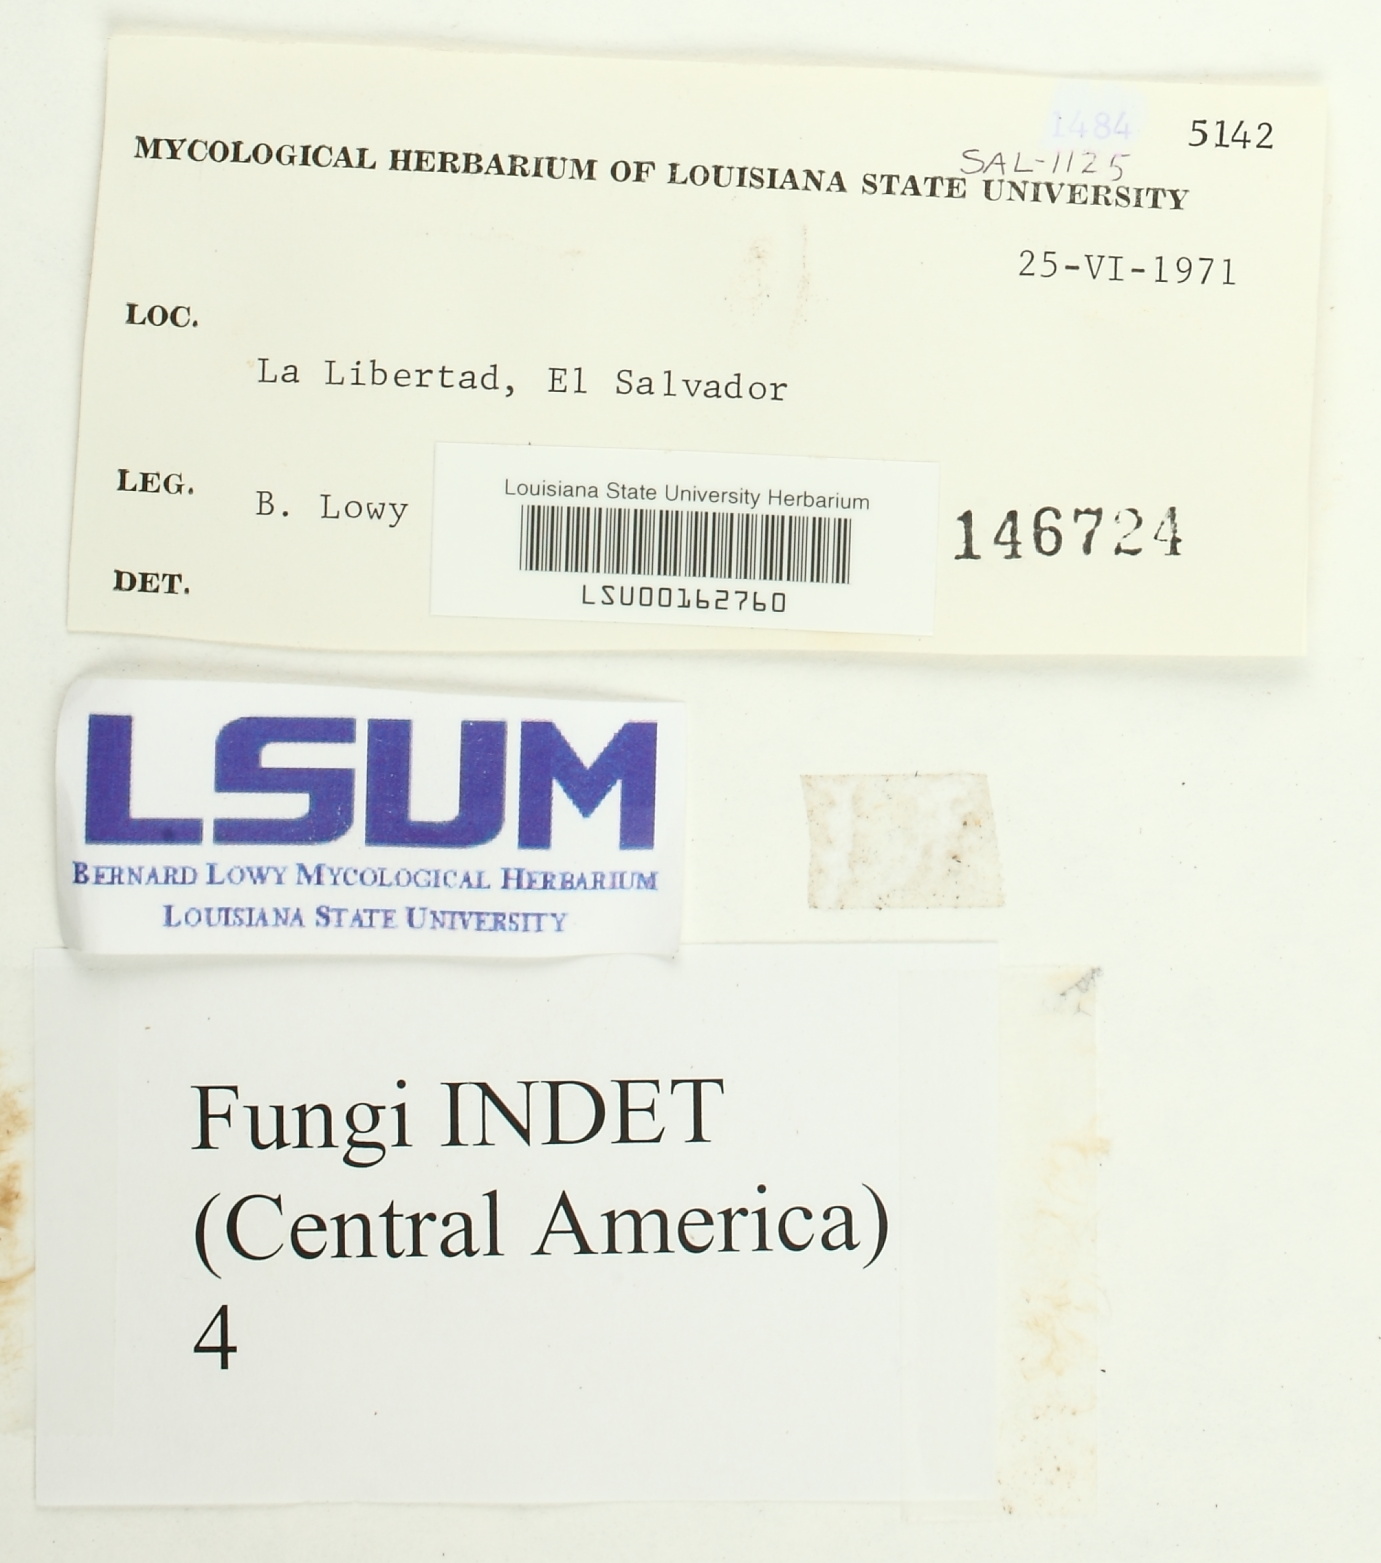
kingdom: Fungi
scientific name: Fungi
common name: Fungi
